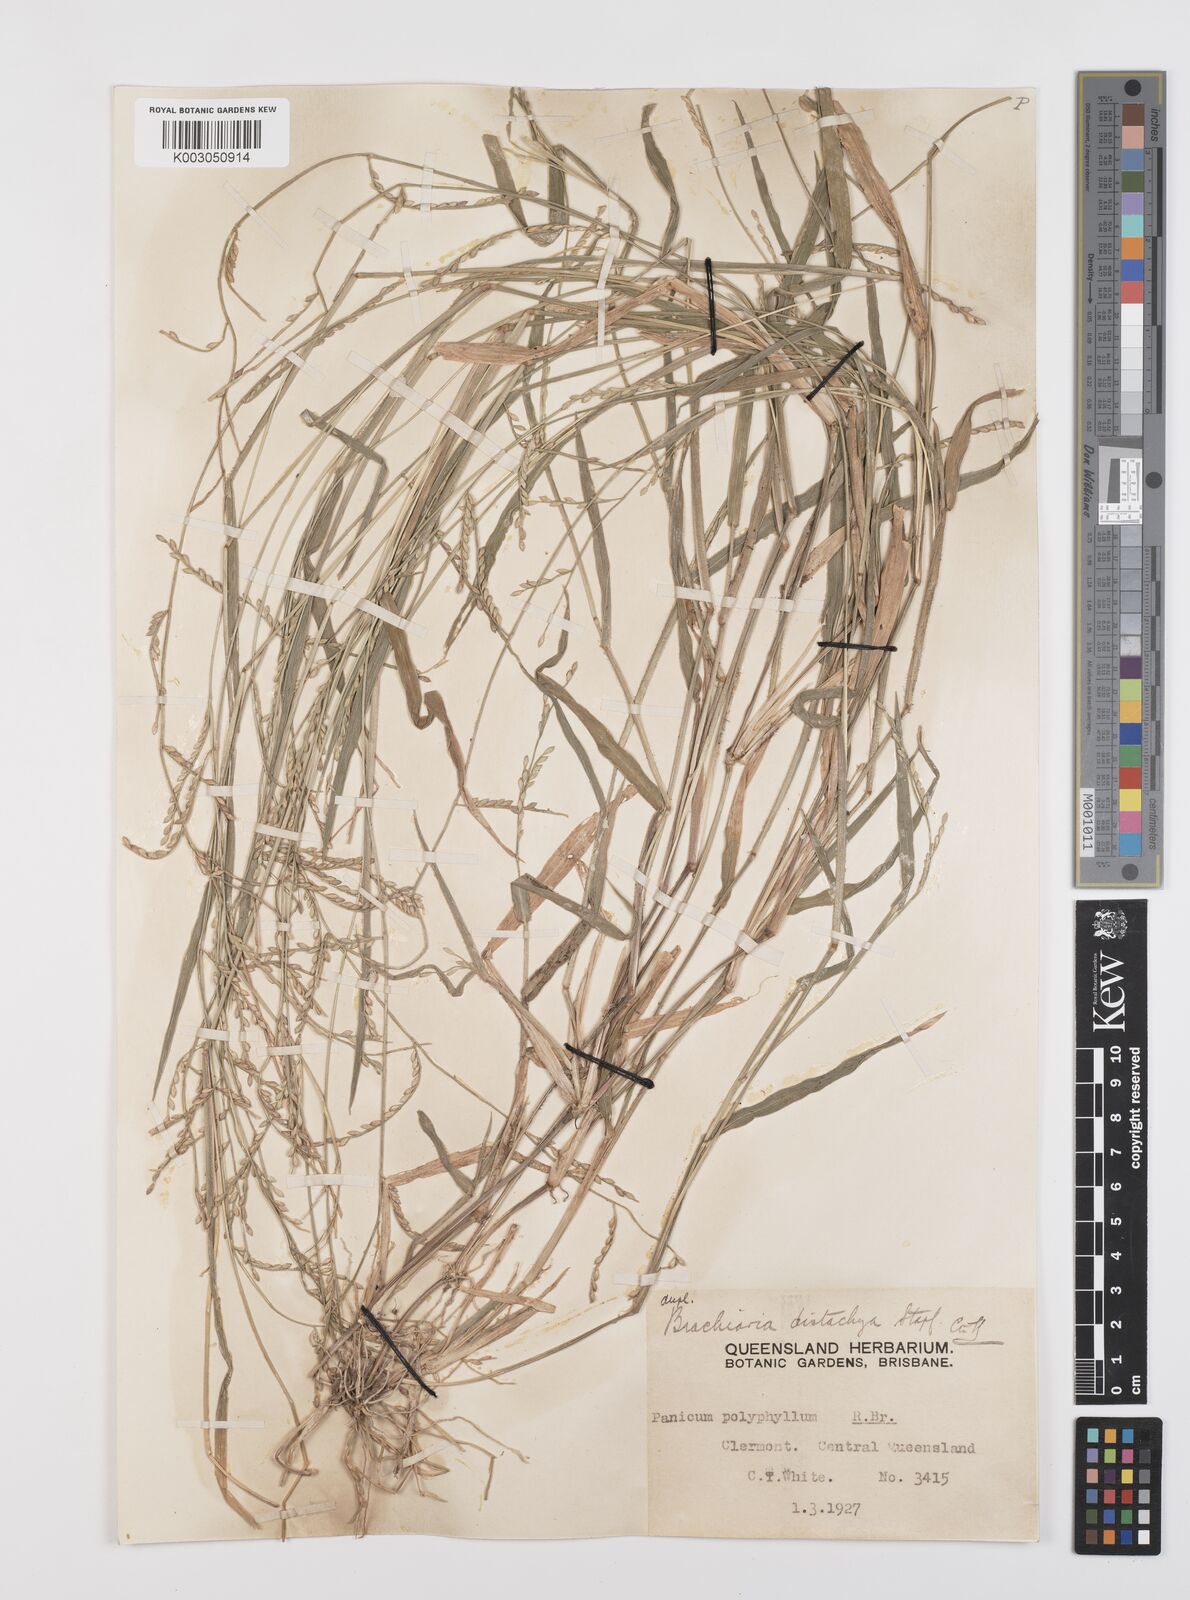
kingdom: Plantae
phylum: Tracheophyta
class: Liliopsida
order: Poales
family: Poaceae
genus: Urochloa
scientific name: Urochloa subquadripara
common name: Armgrass millet
